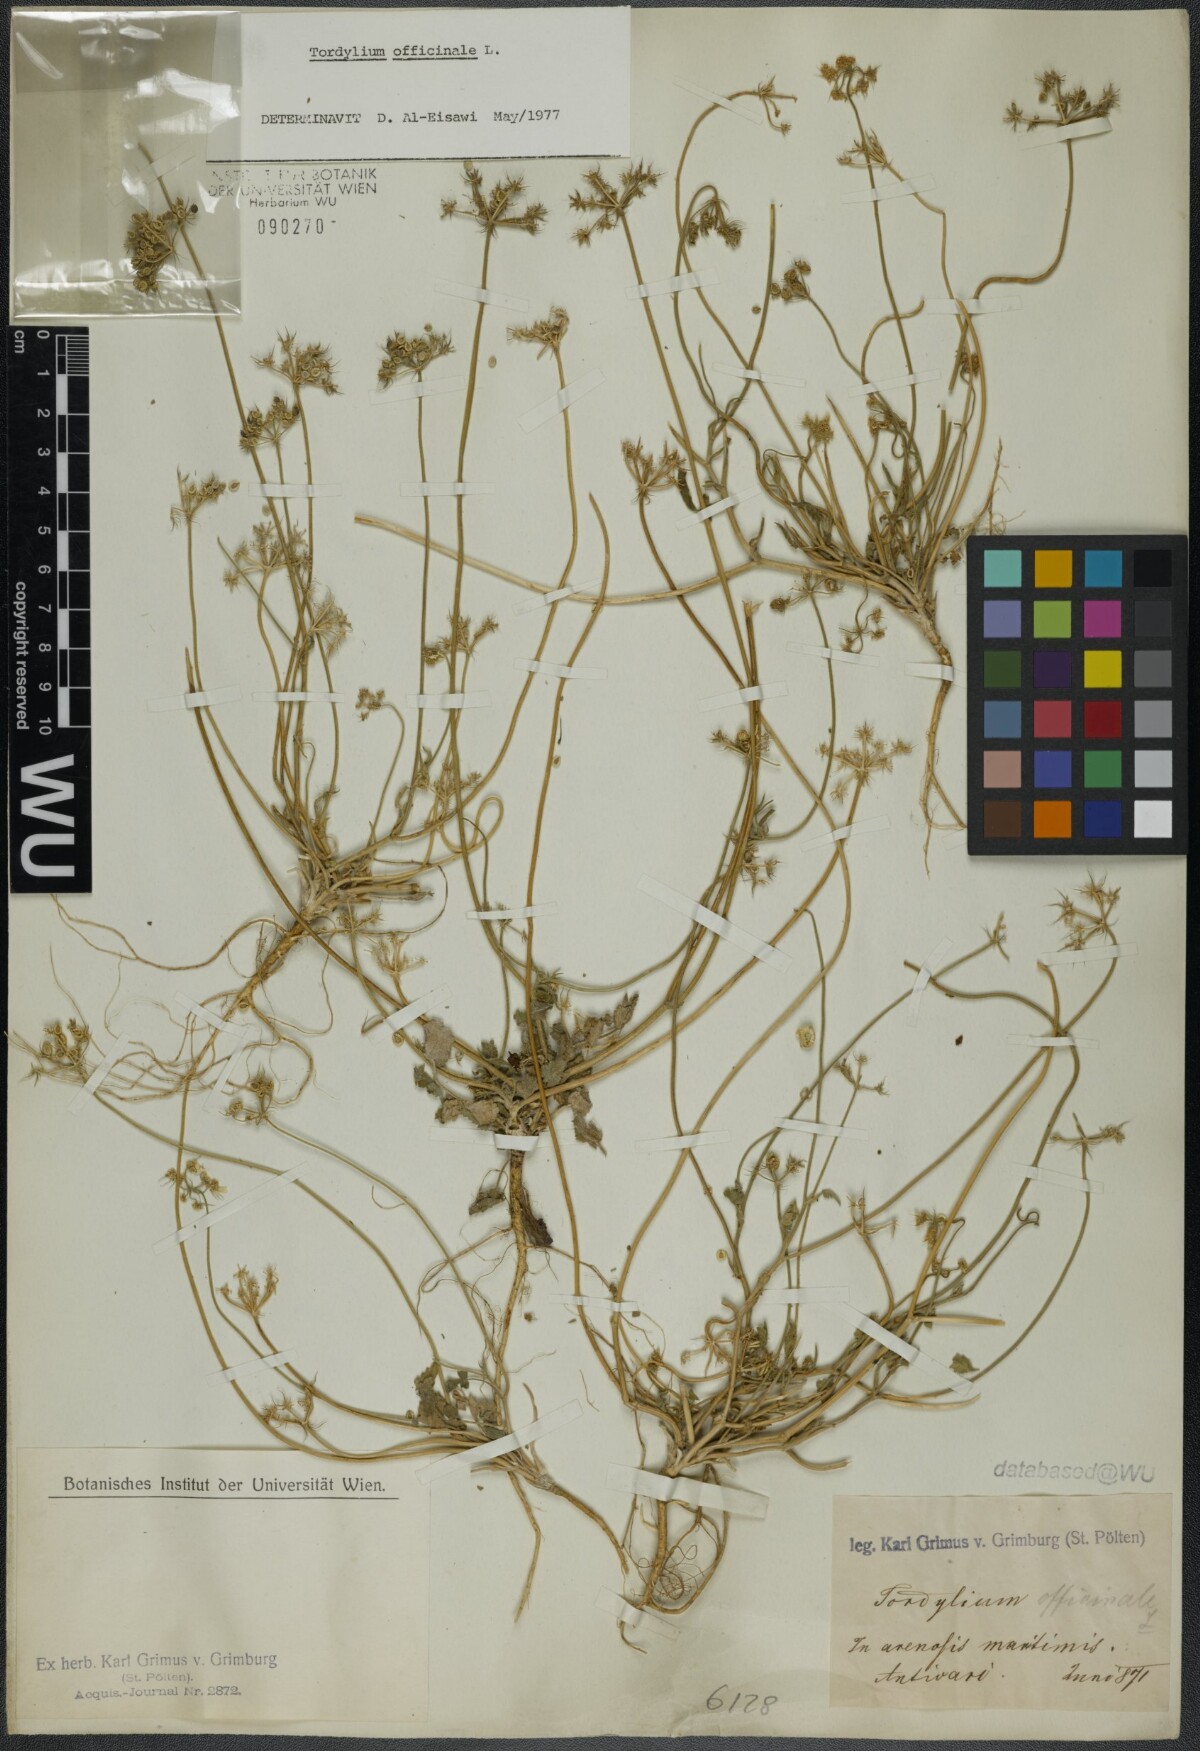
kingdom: Plantae
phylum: Tracheophyta
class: Magnoliopsida
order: Apiales
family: Apiaceae
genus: Tordylium
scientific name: Tordylium officinale
